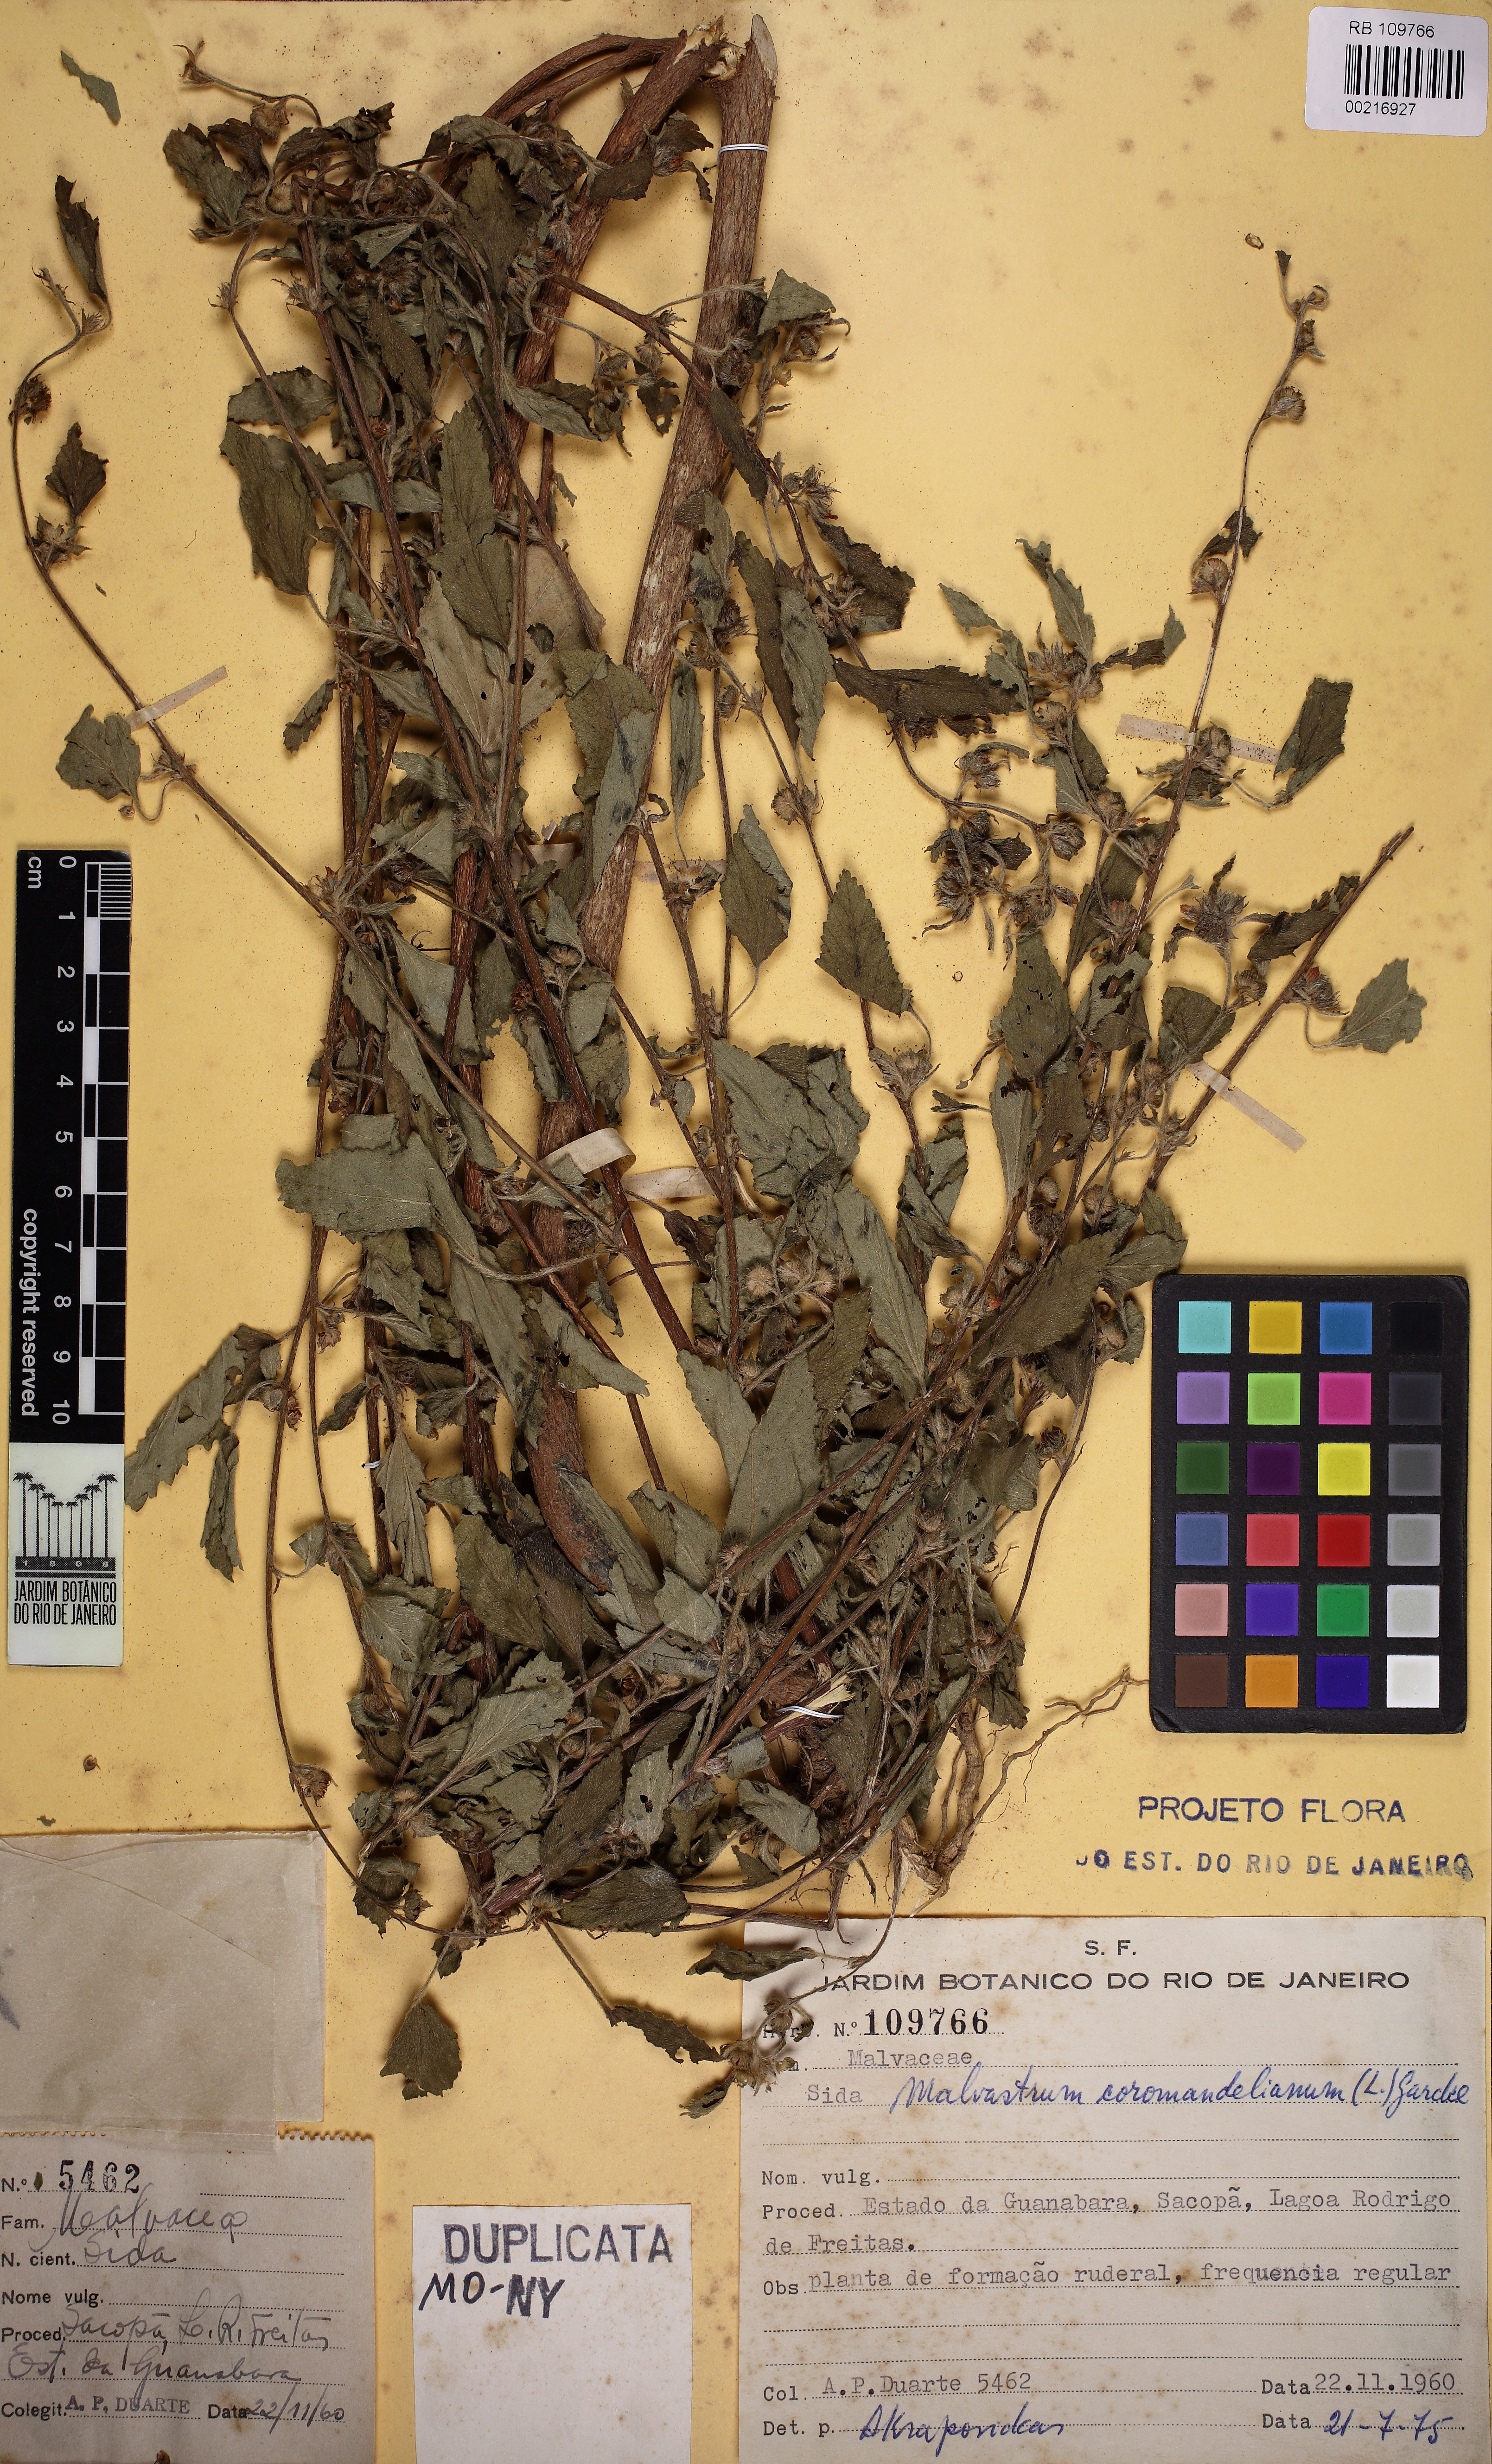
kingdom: Plantae
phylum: Tracheophyta
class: Magnoliopsida
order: Malvales
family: Malvaceae
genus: Malvastrum
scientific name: Malvastrum coromandelianum
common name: Threelobe false mallow
